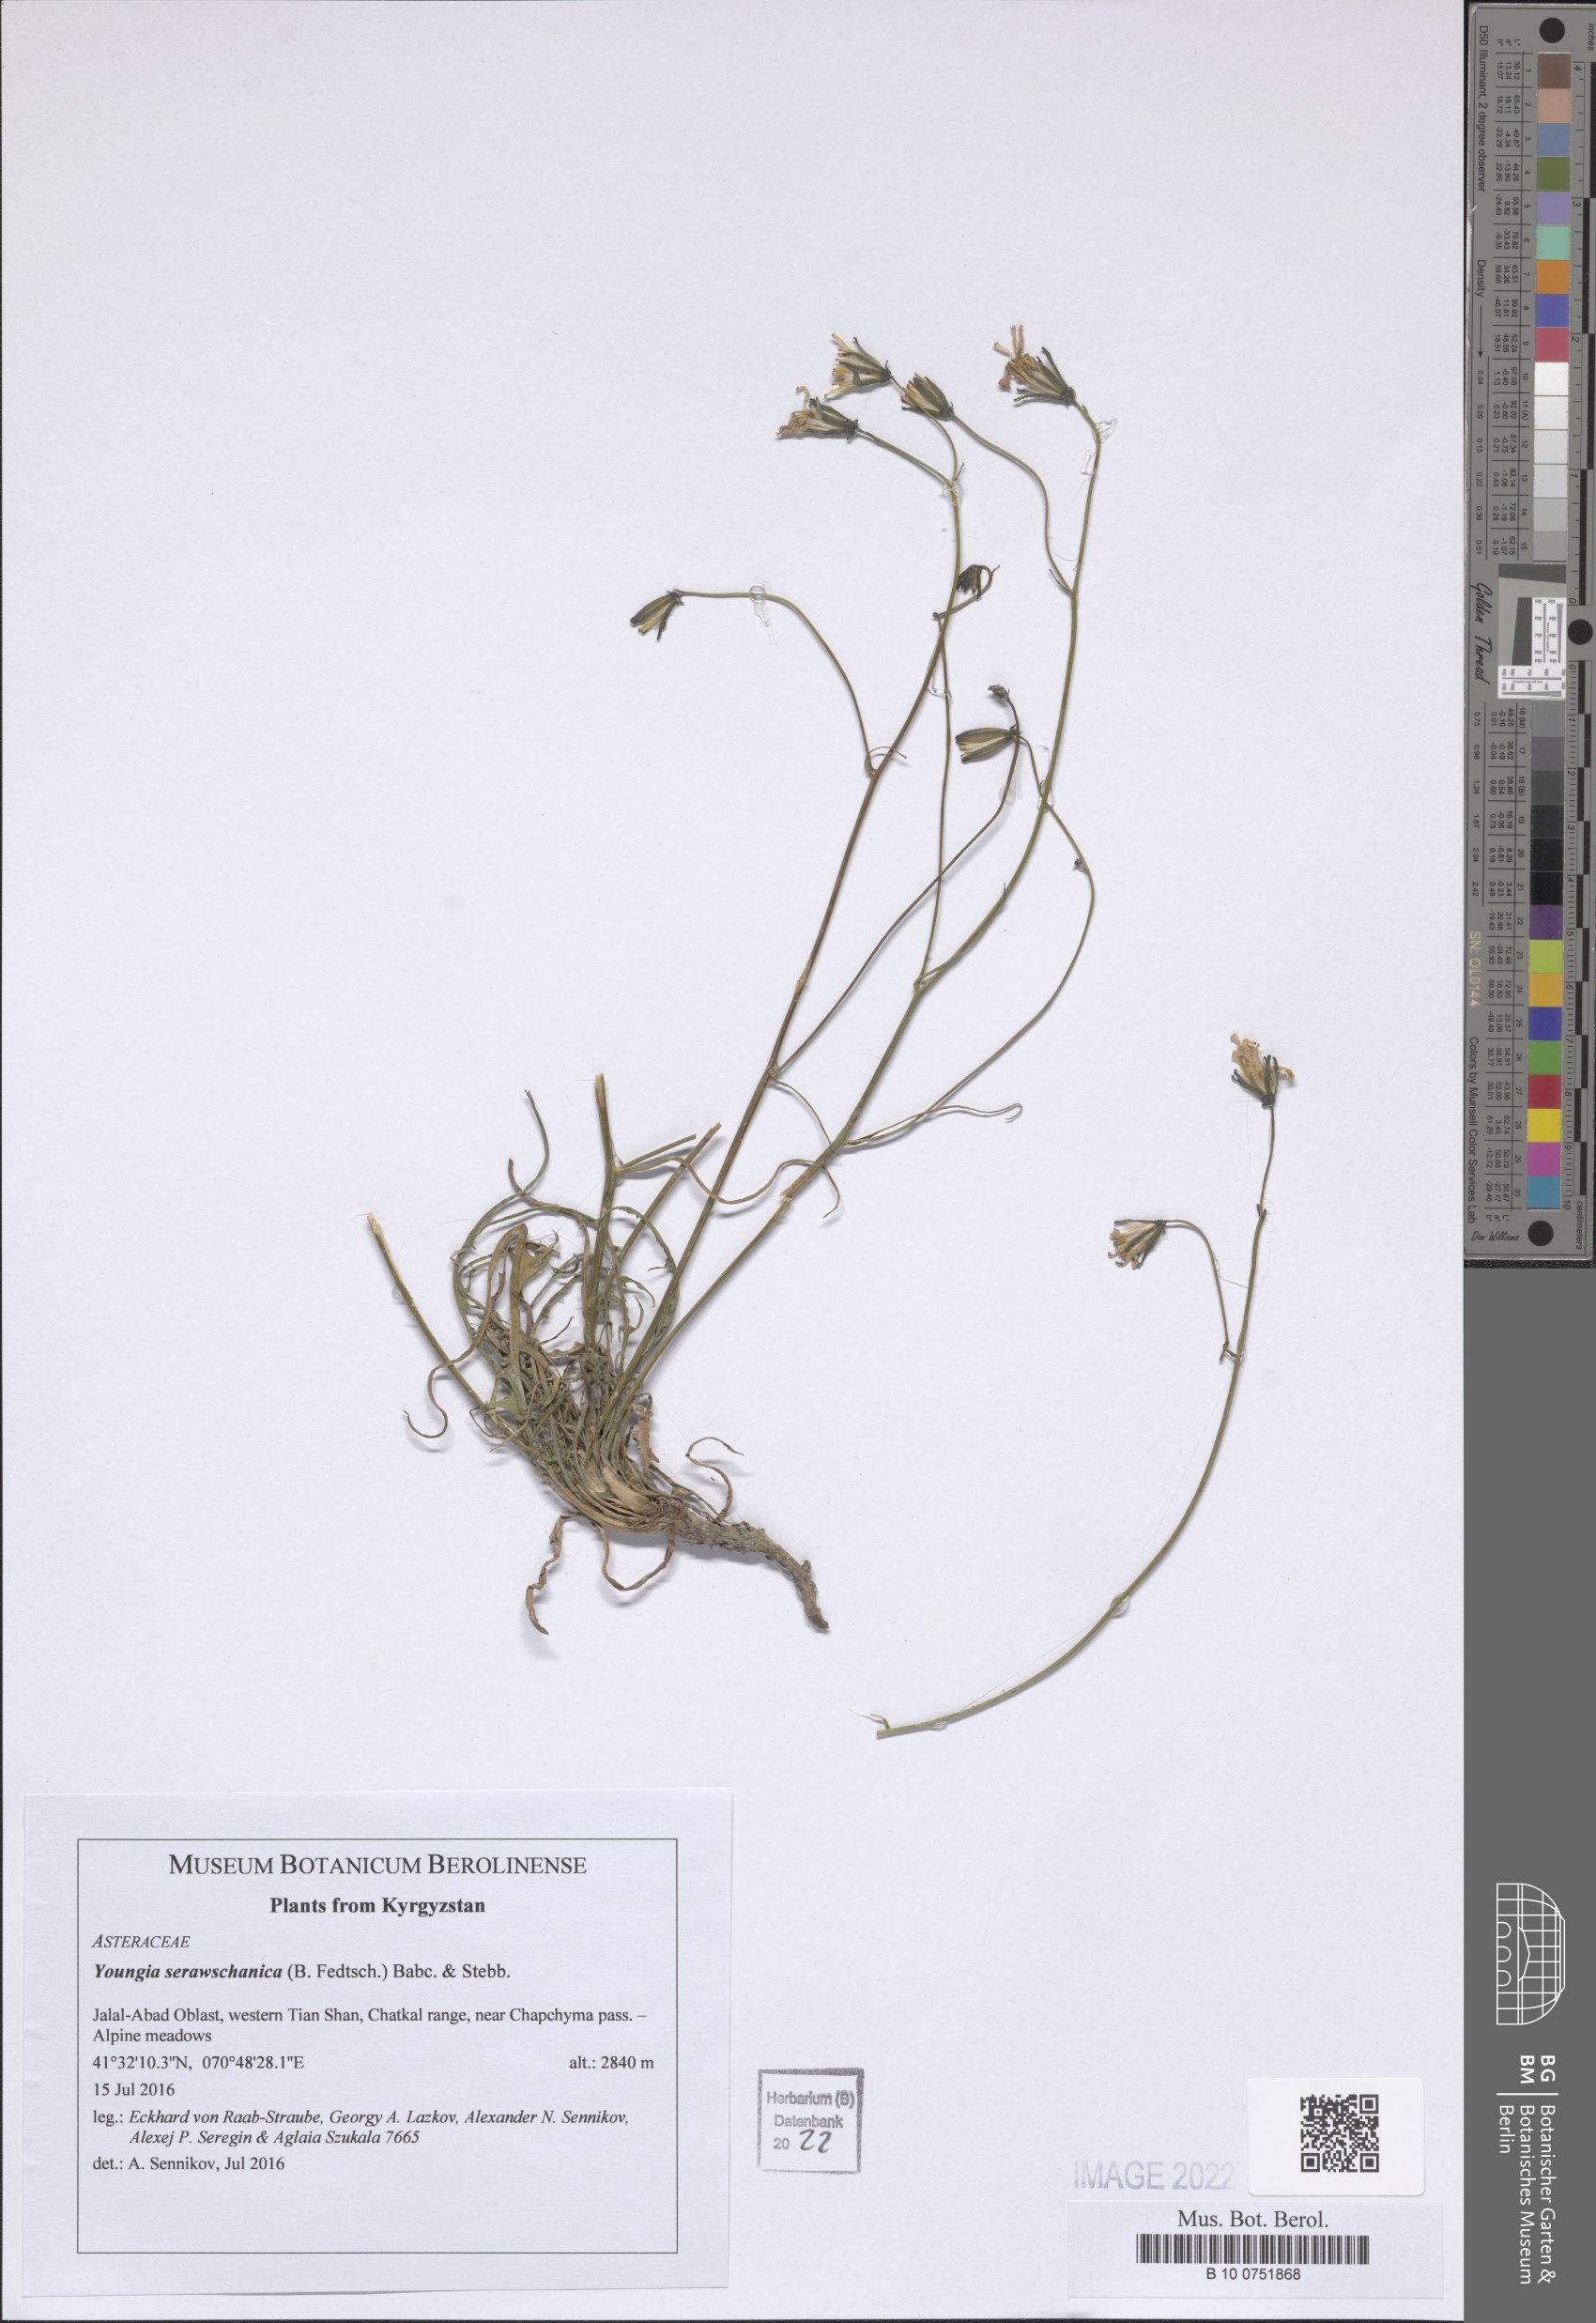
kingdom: Plantae
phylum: Tracheophyta
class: Magnoliopsida
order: Asterales
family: Asteraceae
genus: Crepidiastrum
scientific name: Crepidiastrum serawschanicum
